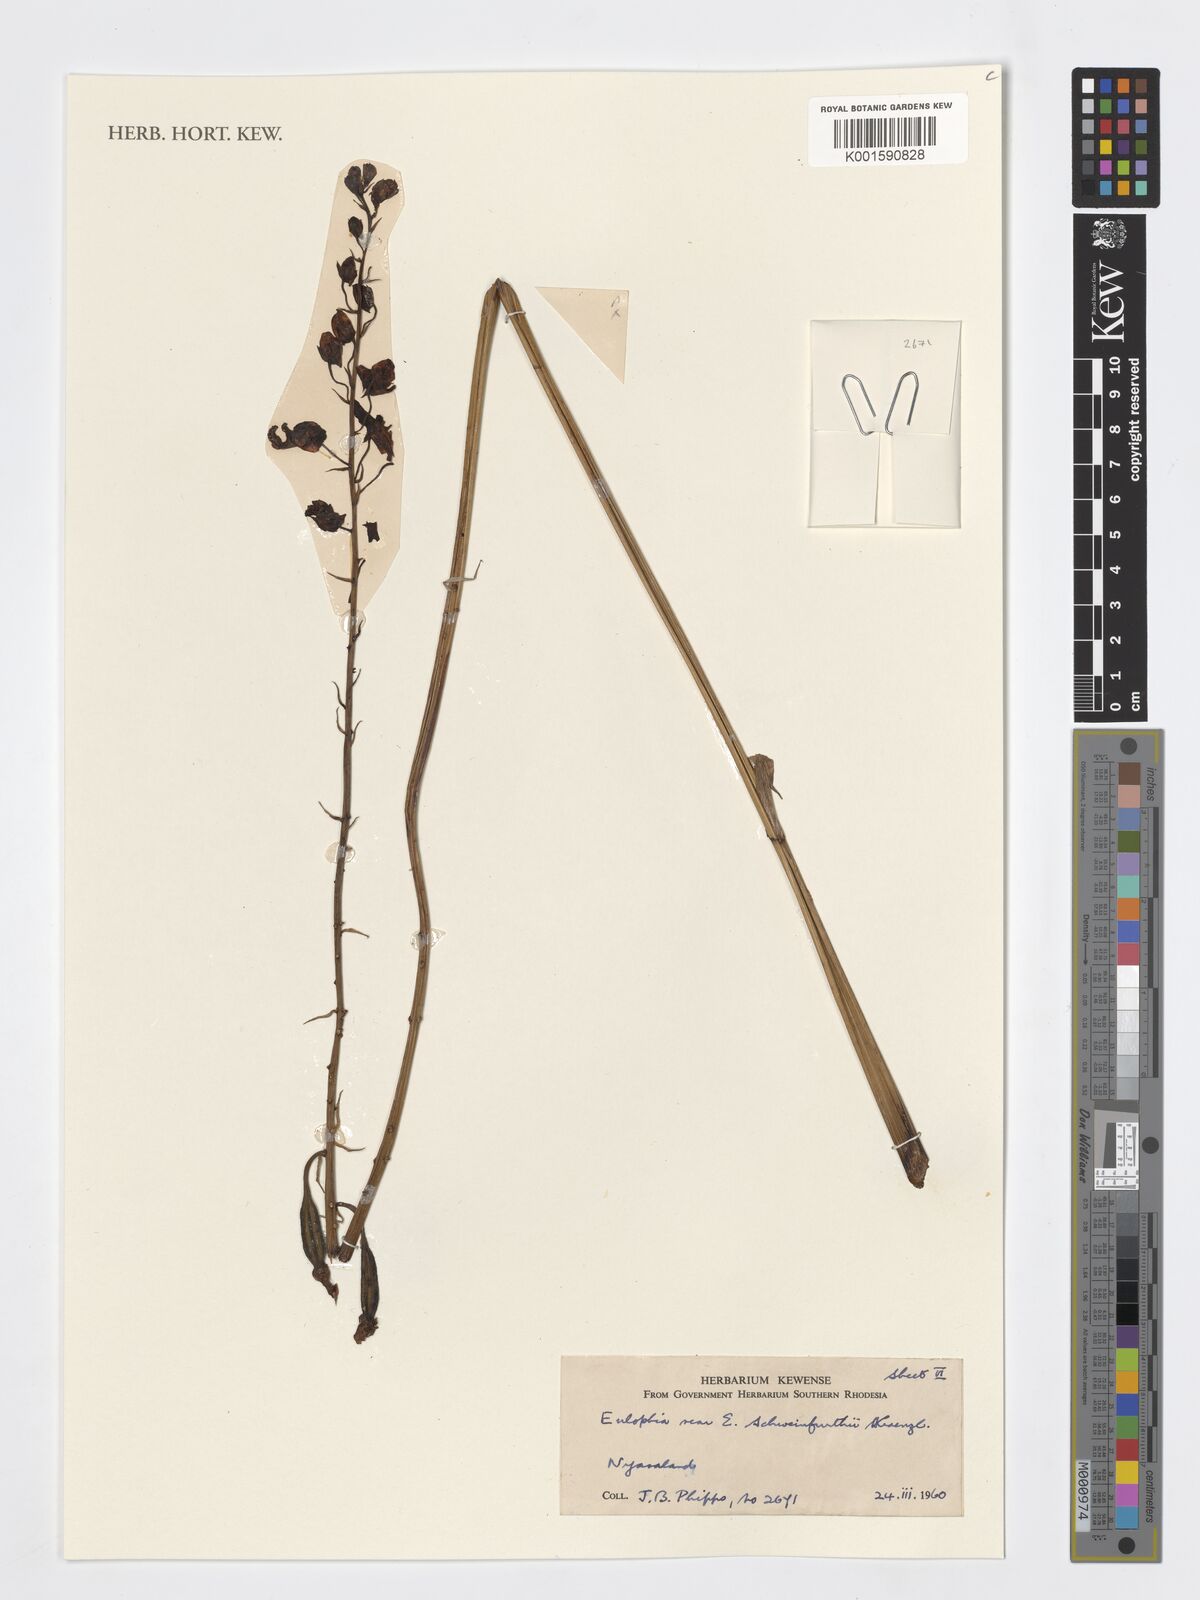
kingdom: Plantae
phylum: Tracheophyta
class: Liliopsida
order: Asparagales
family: Orchidaceae
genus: Eulophia
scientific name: Eulophia schweinfurthii
